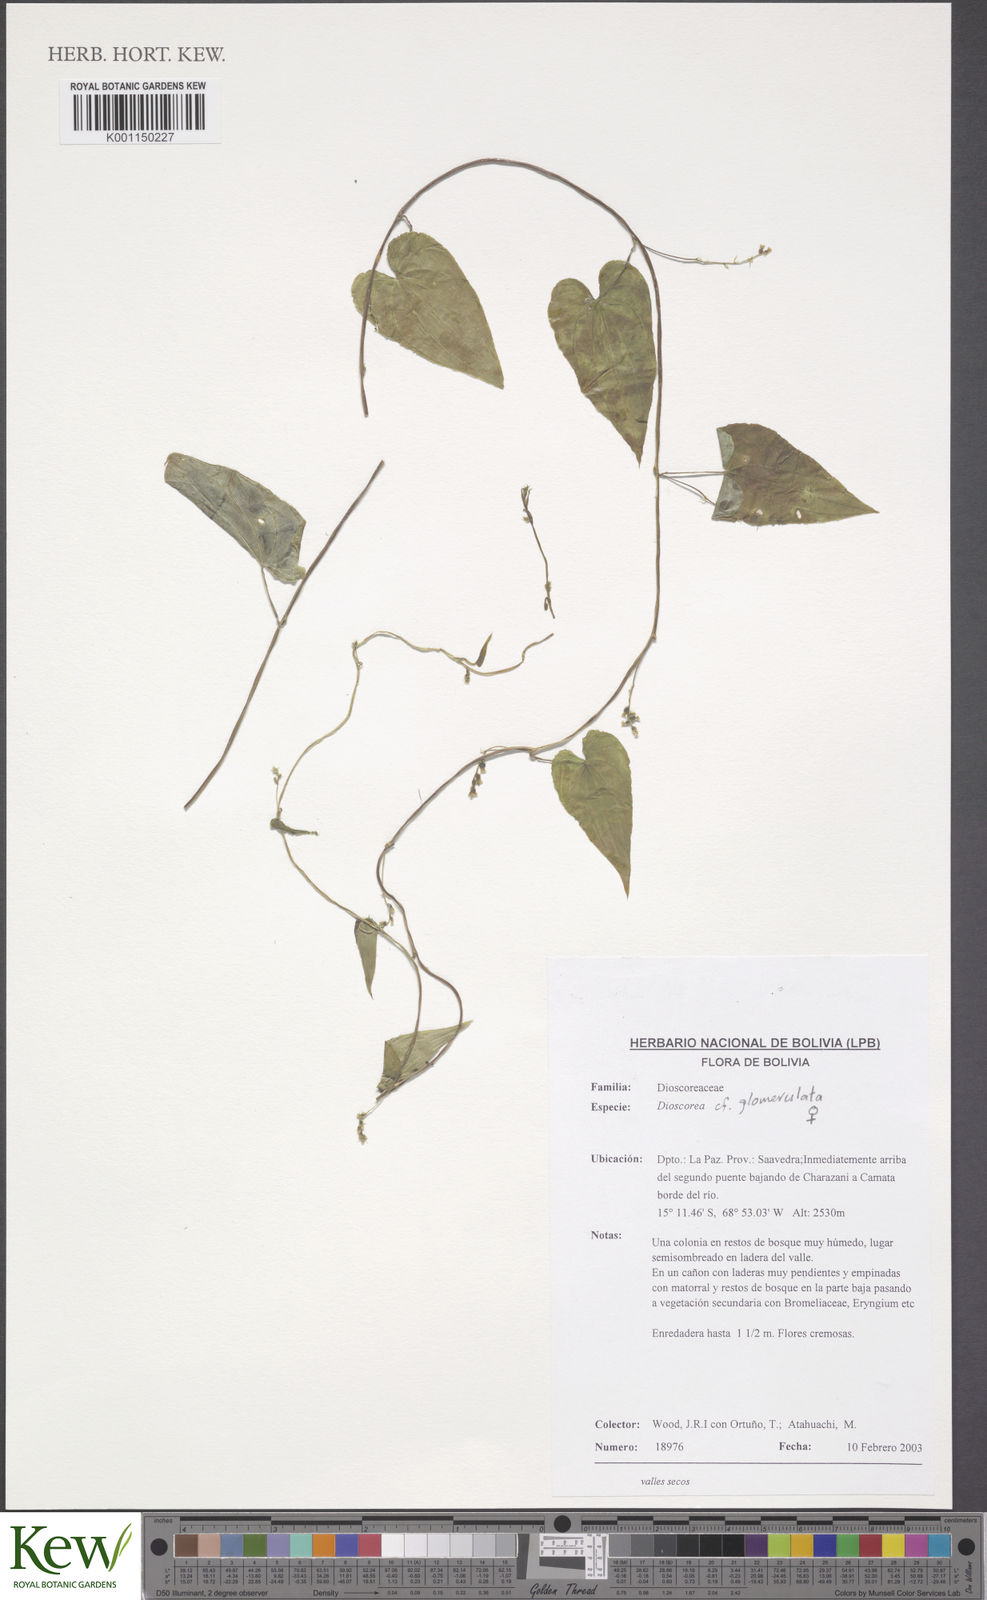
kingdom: Plantae
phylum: Tracheophyta
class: Liliopsida
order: Dioscoreales
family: Dioscoreaceae
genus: Dioscorea
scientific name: Dioscorea glomerulata
